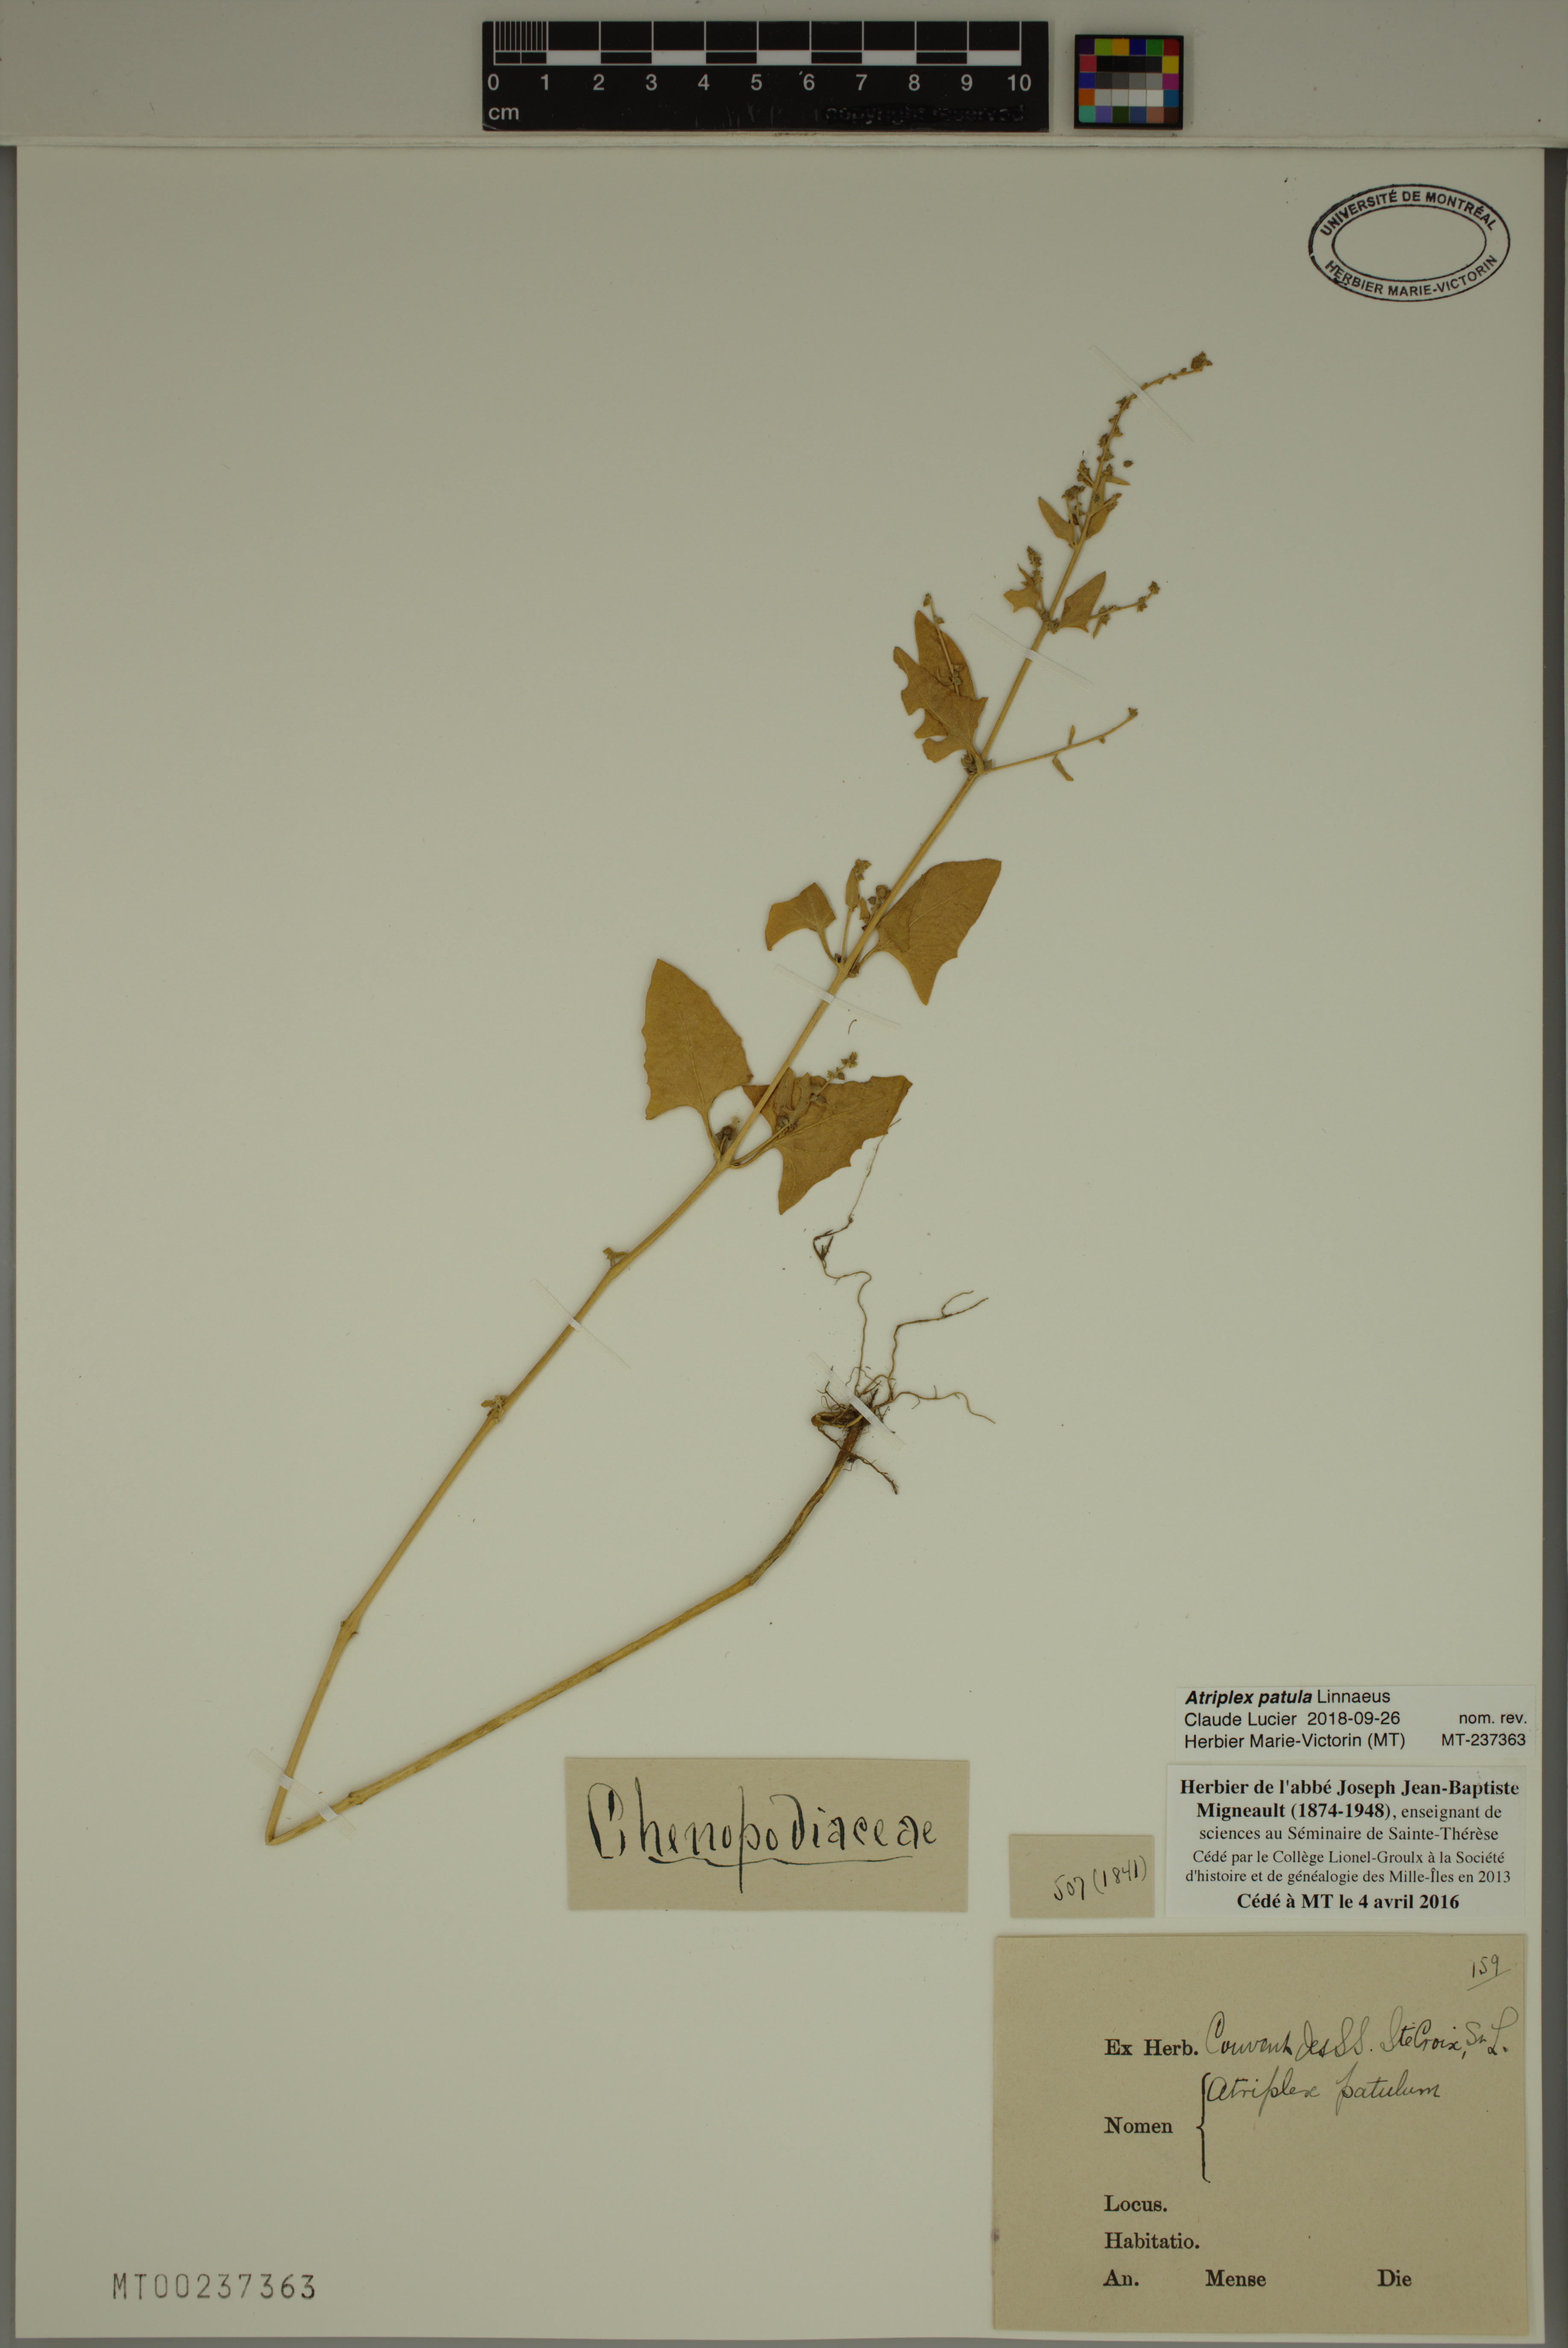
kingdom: Plantae
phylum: Tracheophyta
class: Magnoliopsida
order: Caryophyllales
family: Amaranthaceae
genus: Atriplex
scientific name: Atriplex patula
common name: Common orache
